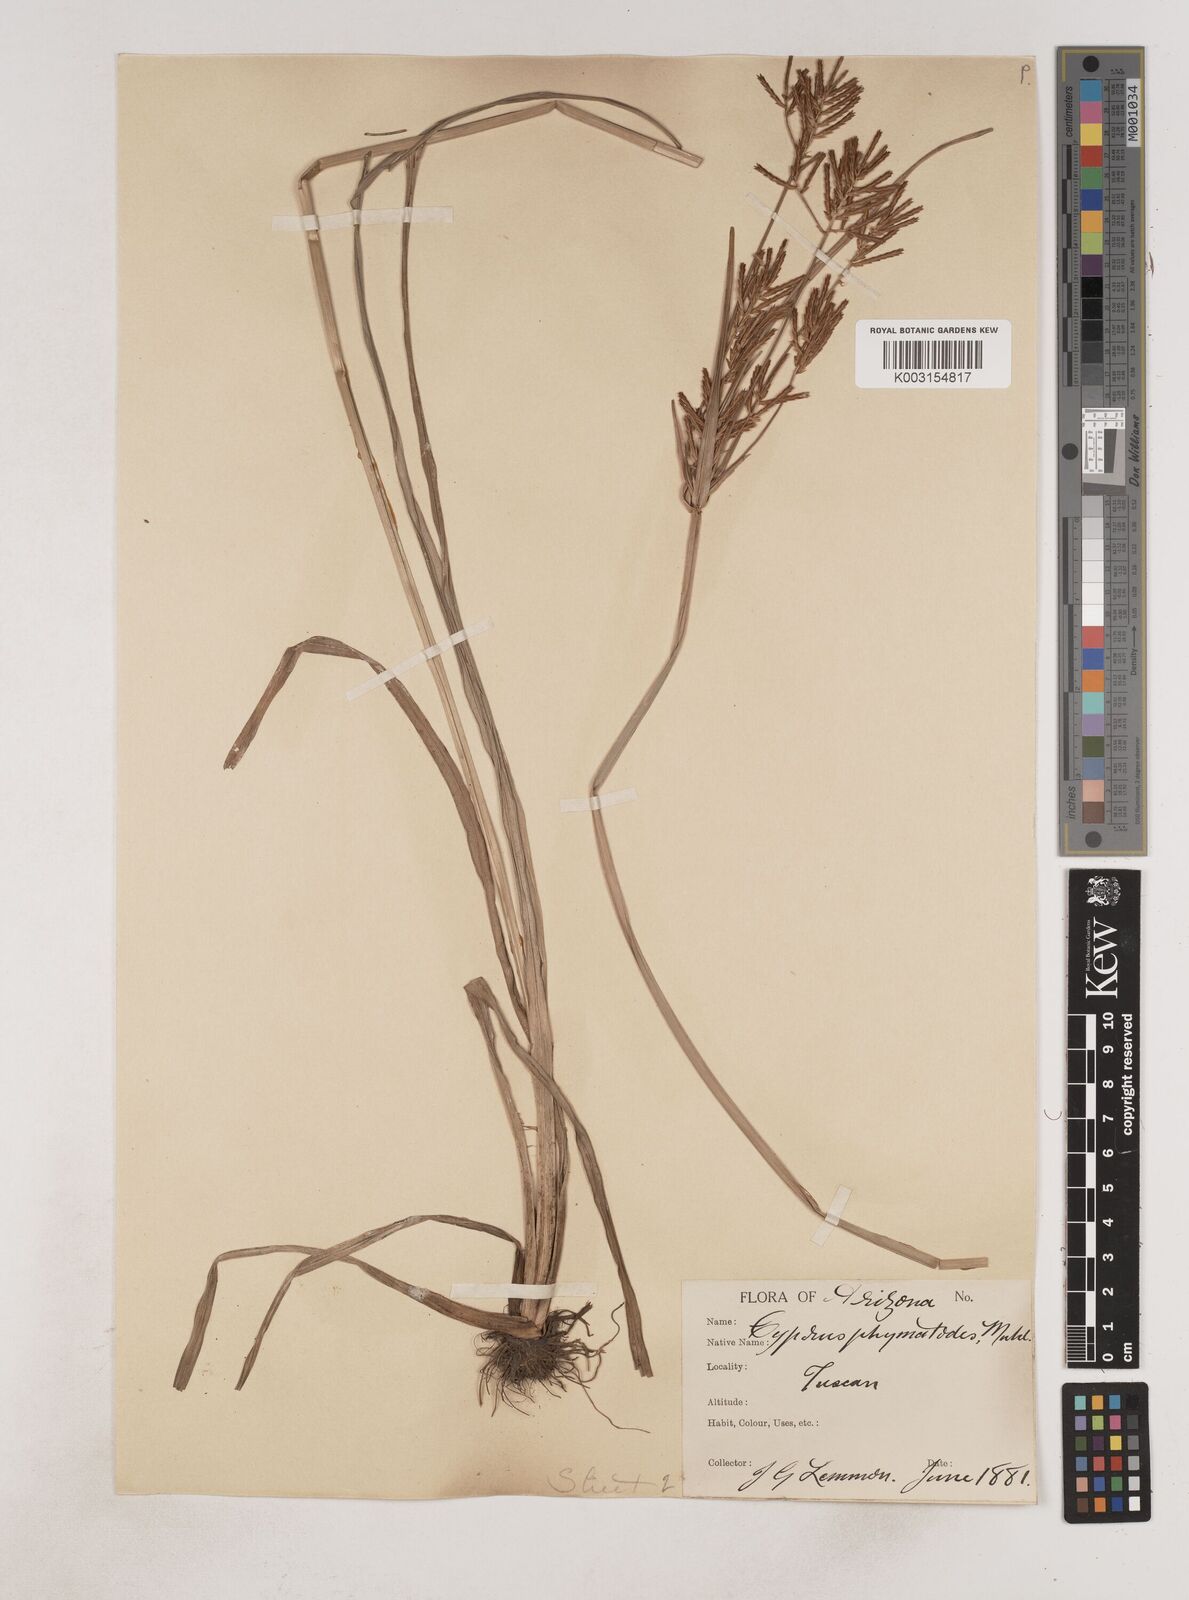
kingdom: Plantae
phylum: Tracheophyta
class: Liliopsida
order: Poales
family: Cyperaceae
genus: Cyperus
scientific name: Cyperus esculentus
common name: Yellow nutsedge
